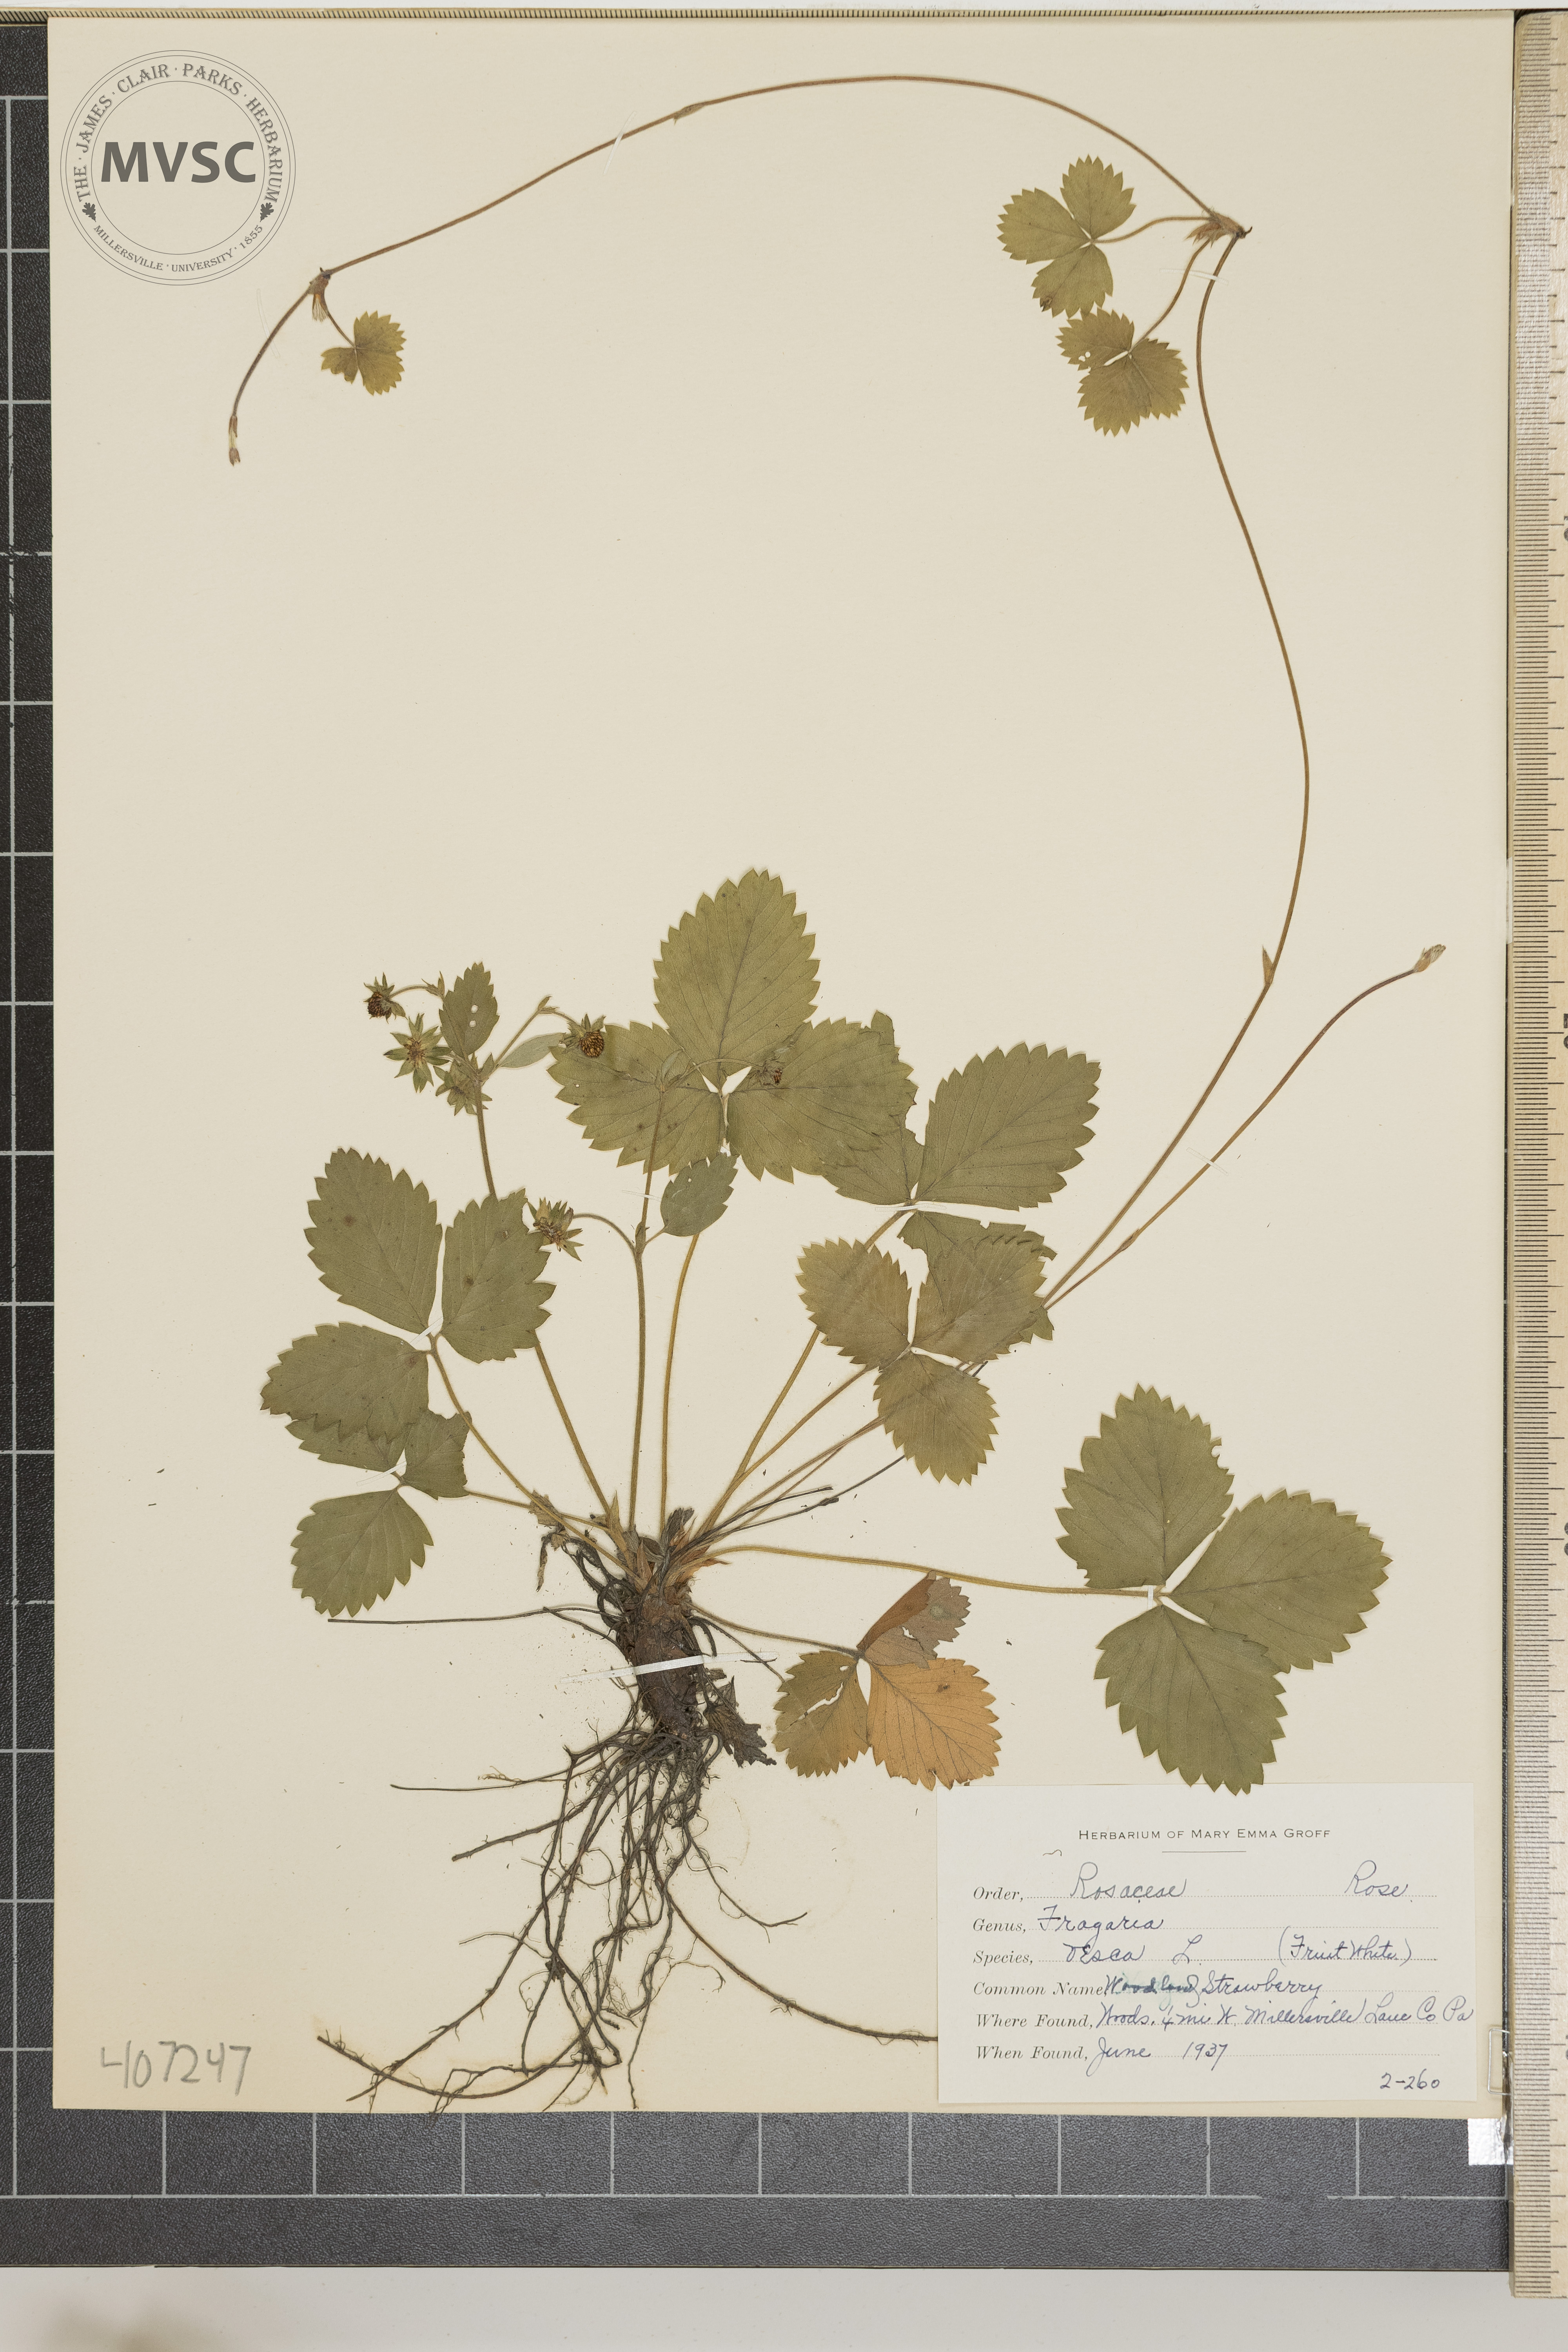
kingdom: Plantae
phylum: Tracheophyta
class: Magnoliopsida
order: Rosales
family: Rosaceae
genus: Fragaria
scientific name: Fragaria vesca
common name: Woodland Strawberry
